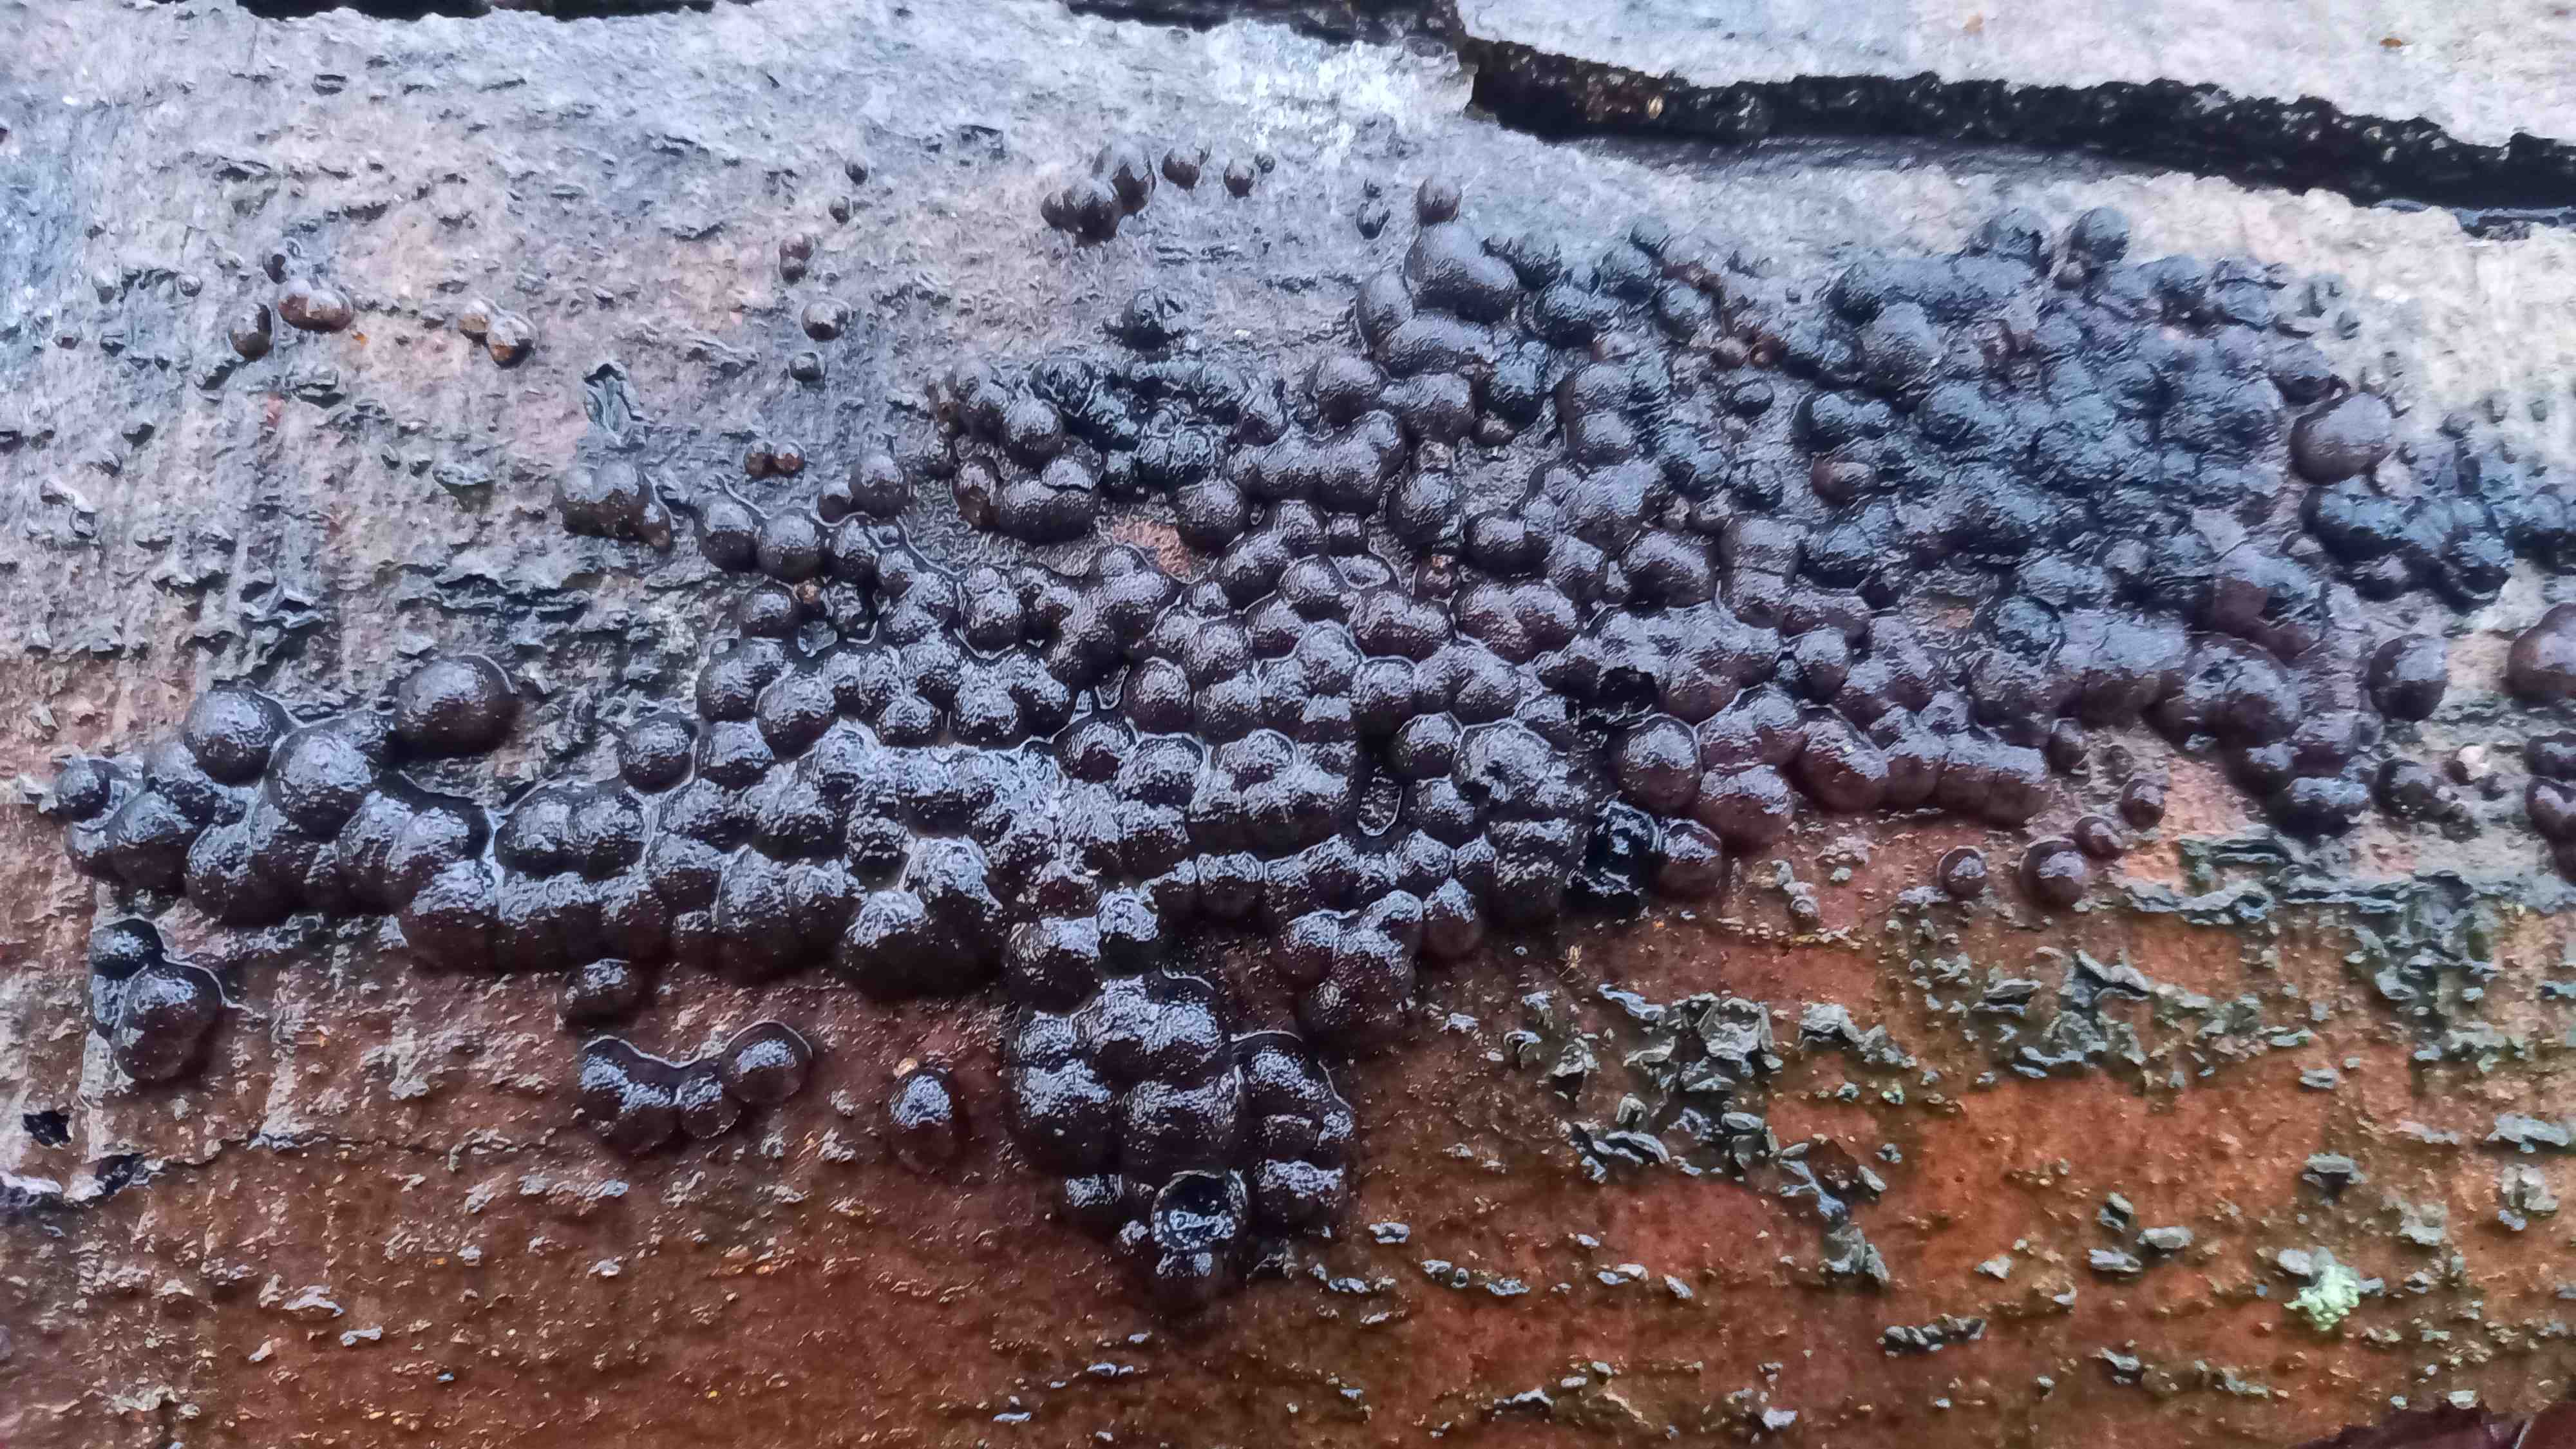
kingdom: Fungi
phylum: Ascomycota
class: Sordariomycetes
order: Xylariales
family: Hypoxylaceae
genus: Jackrogersella
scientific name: Jackrogersella cohaerens
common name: sammenflydende kulbær
